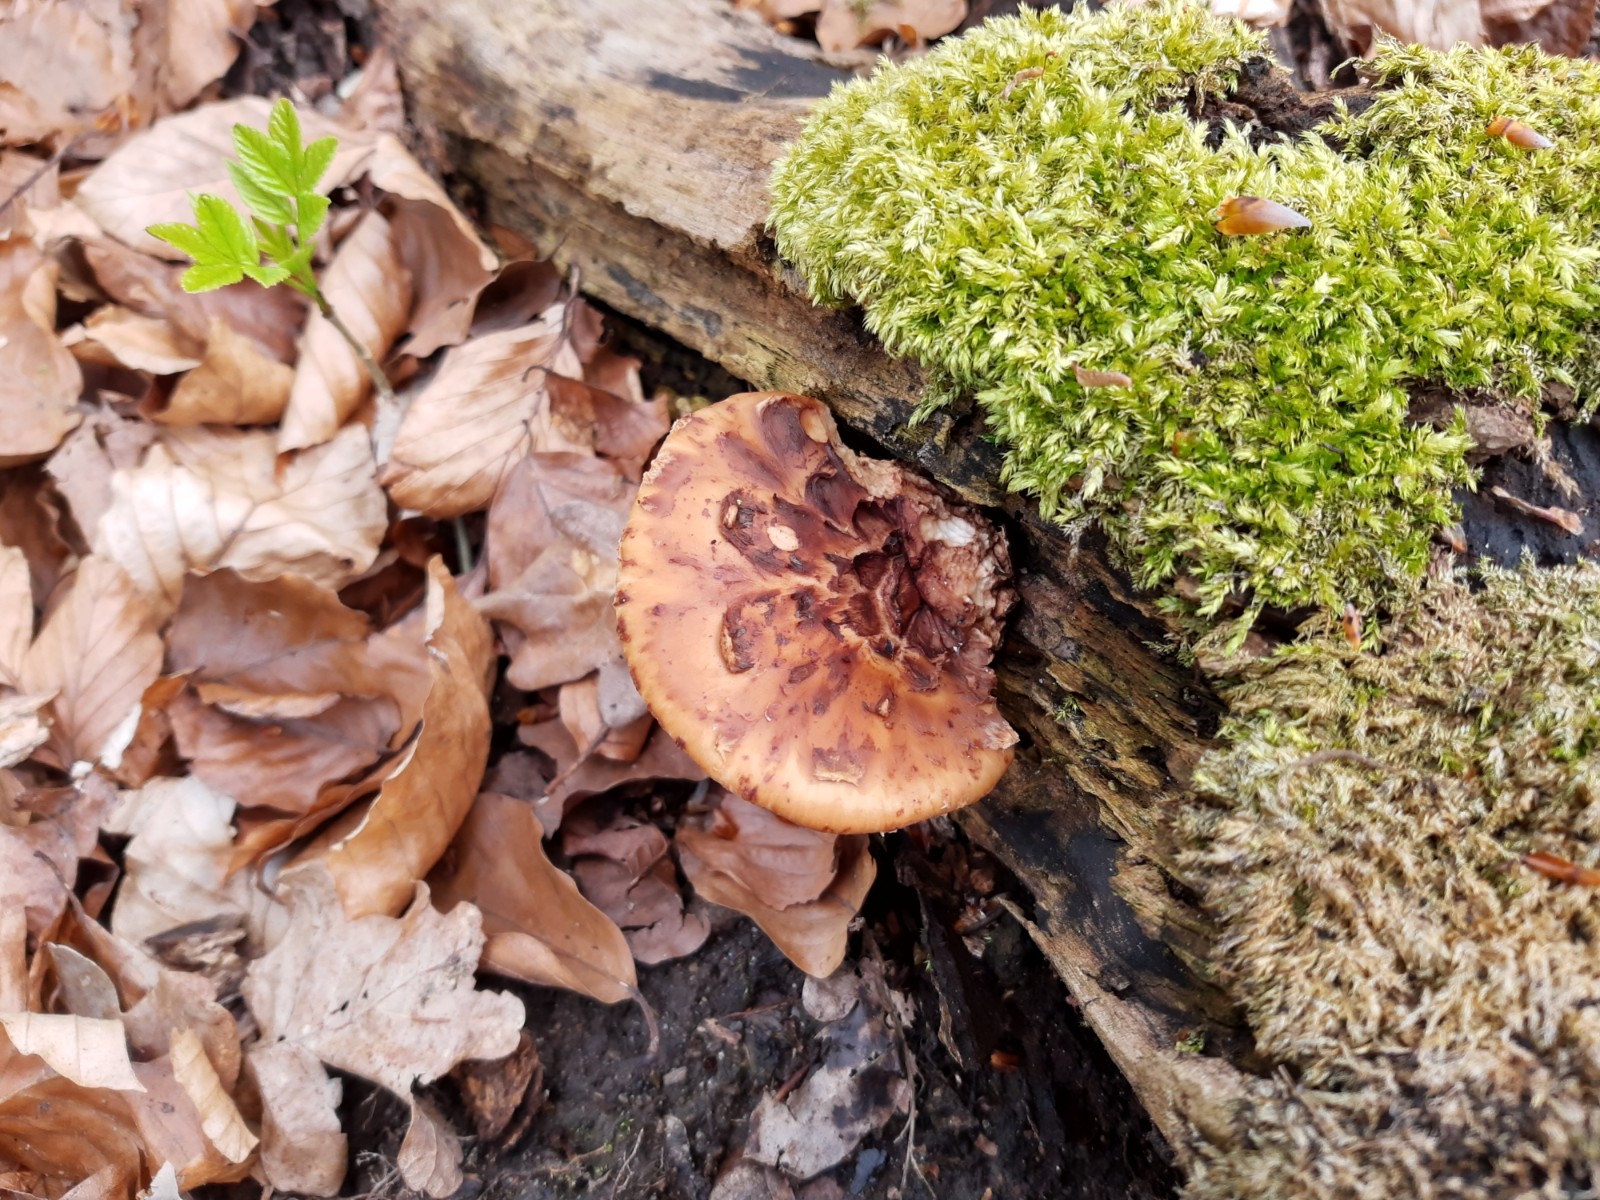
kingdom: Fungi
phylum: Basidiomycota
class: Agaricomycetes
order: Polyporales
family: Polyporaceae
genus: Cerioporus
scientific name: Cerioporus squamosus
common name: skællet stilkporesvamp
